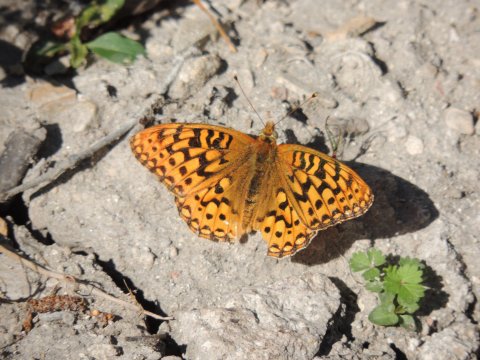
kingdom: Animalia
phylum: Arthropoda
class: Insecta
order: Lepidoptera
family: Nymphalidae
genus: Speyeria
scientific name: Speyeria coronis
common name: Coronis Fritillary
